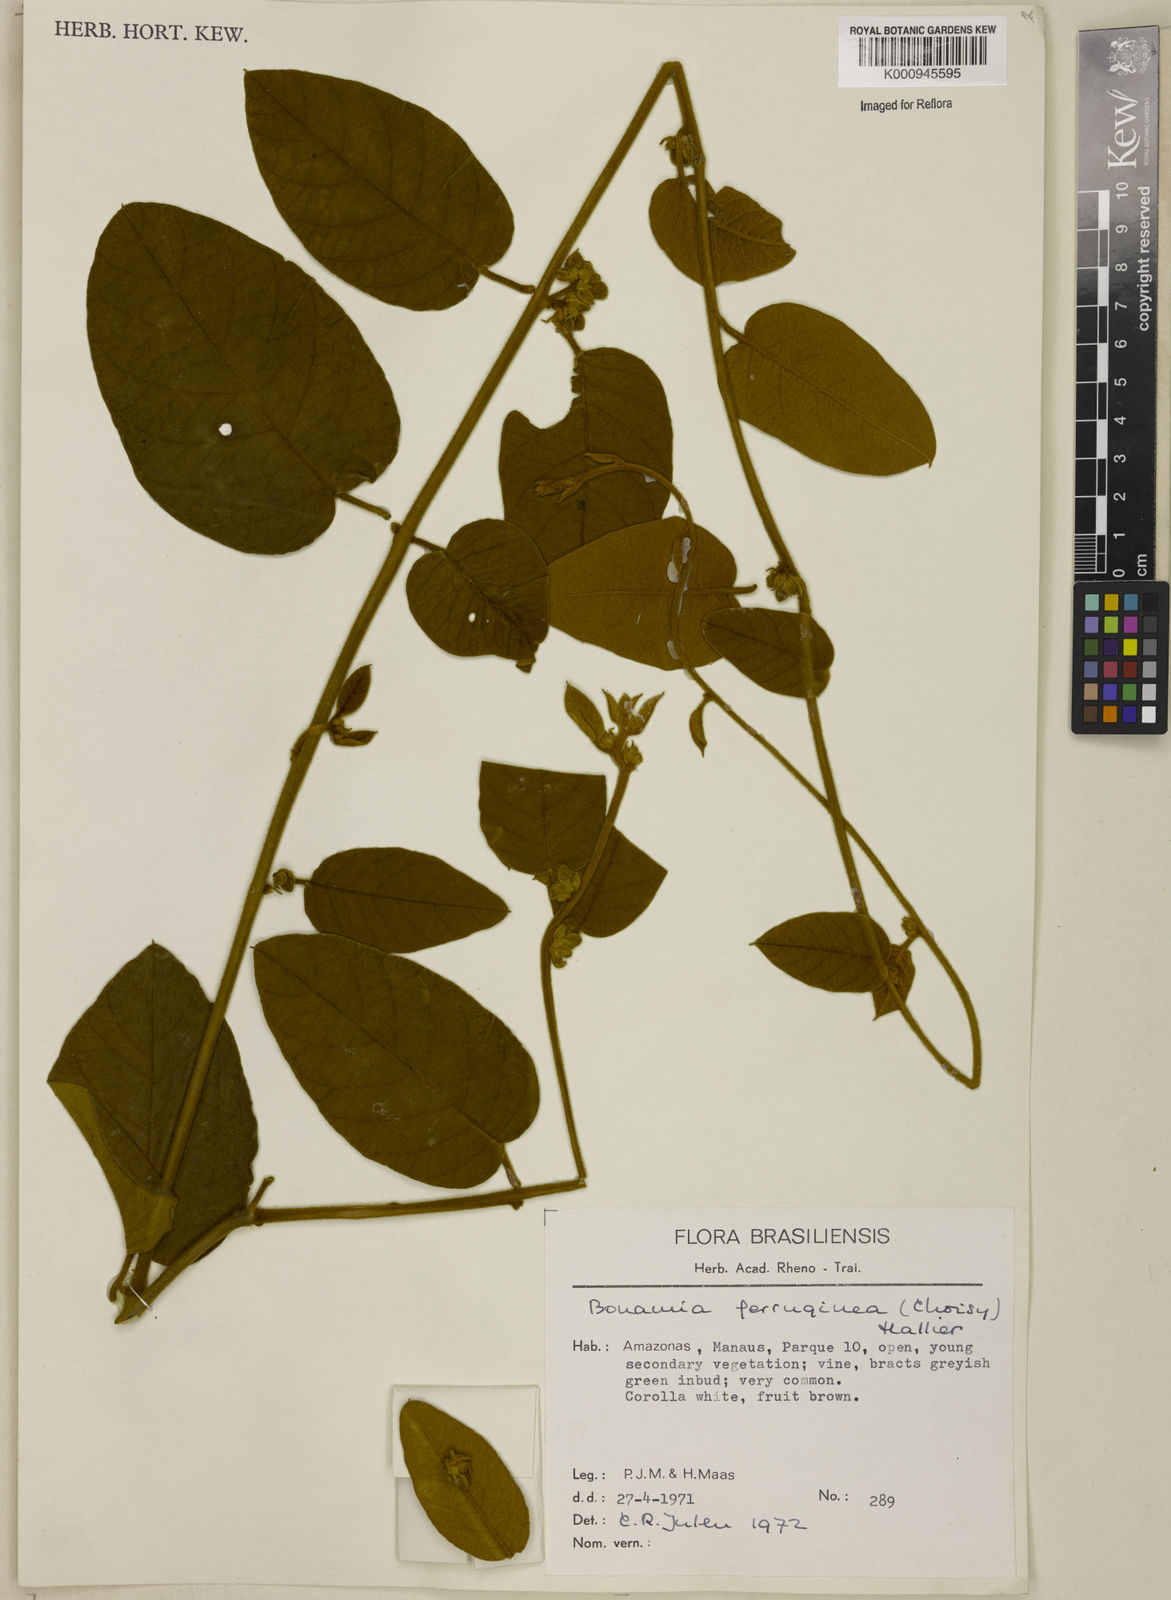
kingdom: Plantae
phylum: Tracheophyta
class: Magnoliopsida
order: Solanales
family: Convolvulaceae
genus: Bonamia
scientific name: Bonamia ferruginea
